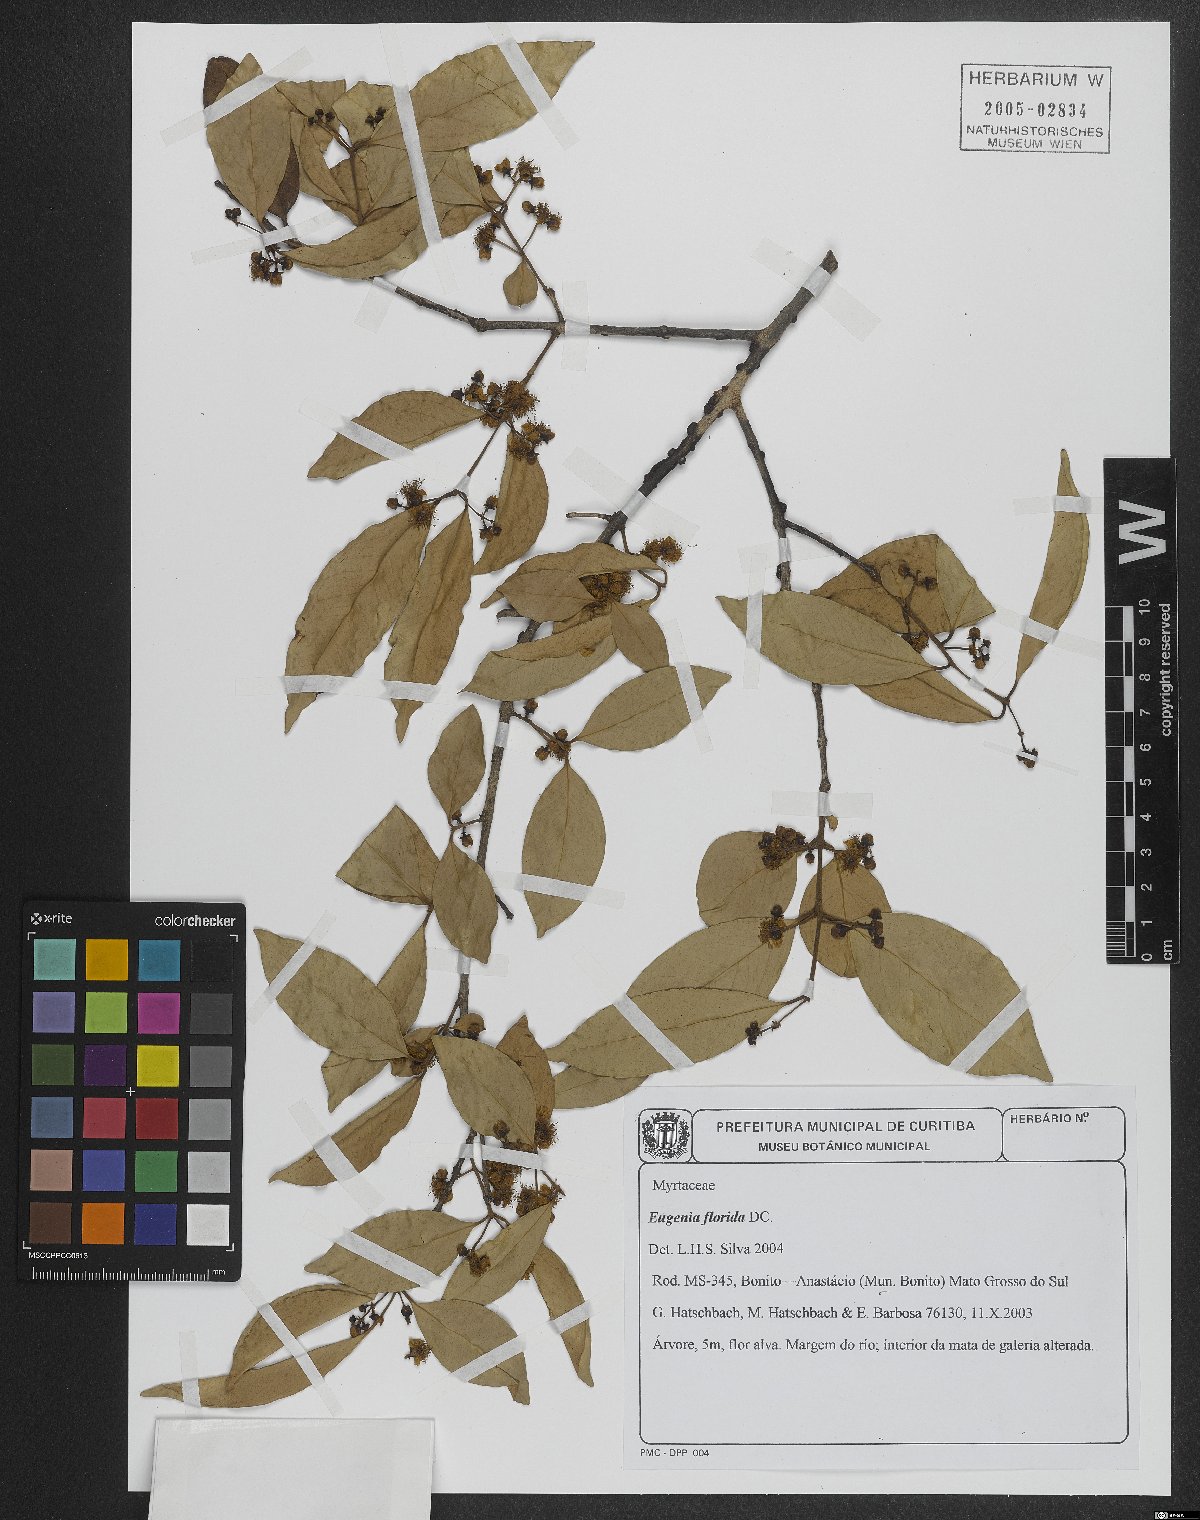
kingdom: Plantae
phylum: Tracheophyta
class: Magnoliopsida
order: Myrtales
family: Myrtaceae
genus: Eugenia
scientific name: Eugenia florida
